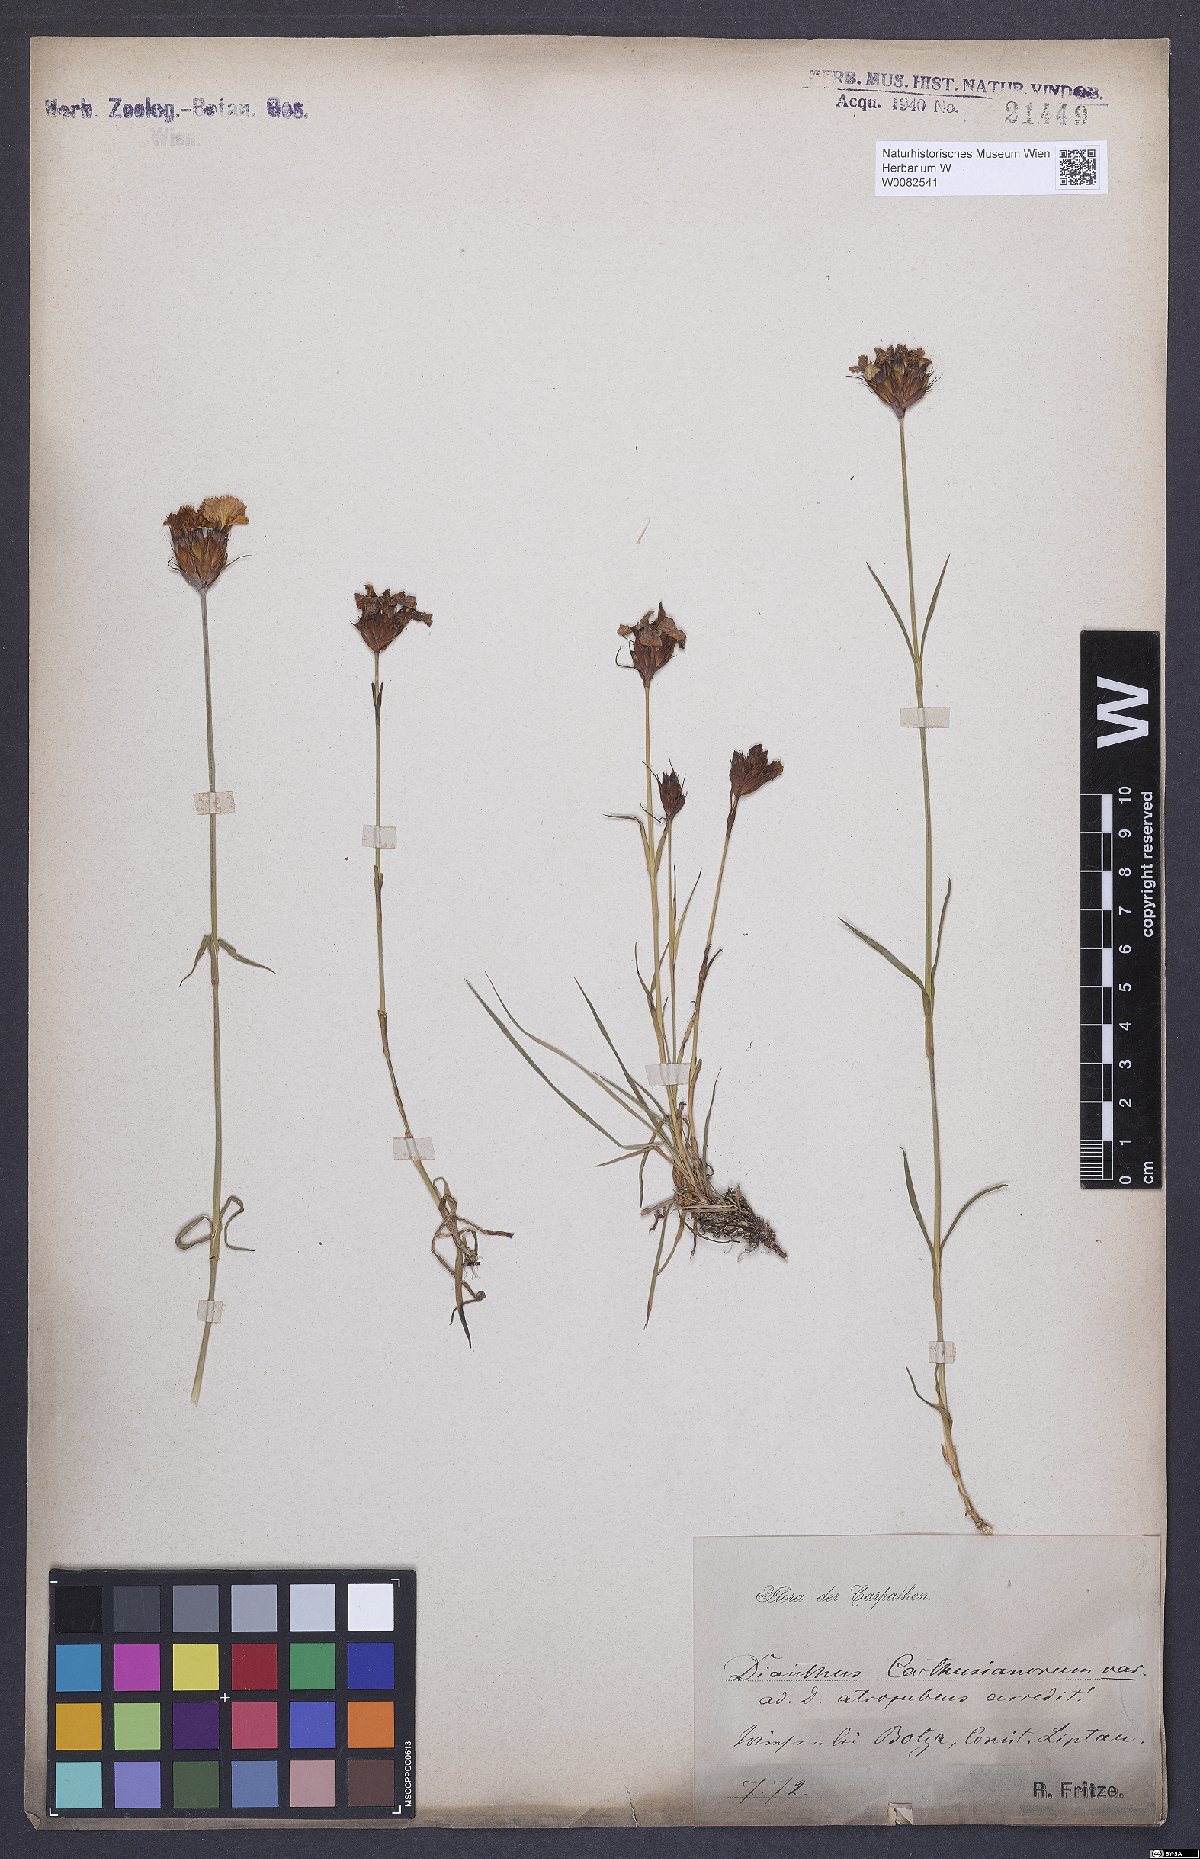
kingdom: Plantae
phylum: Tracheophyta
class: Magnoliopsida
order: Caryophyllales
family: Caryophyllaceae
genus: Dianthus
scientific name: Dianthus carthusianorum
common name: Carthusian pink
